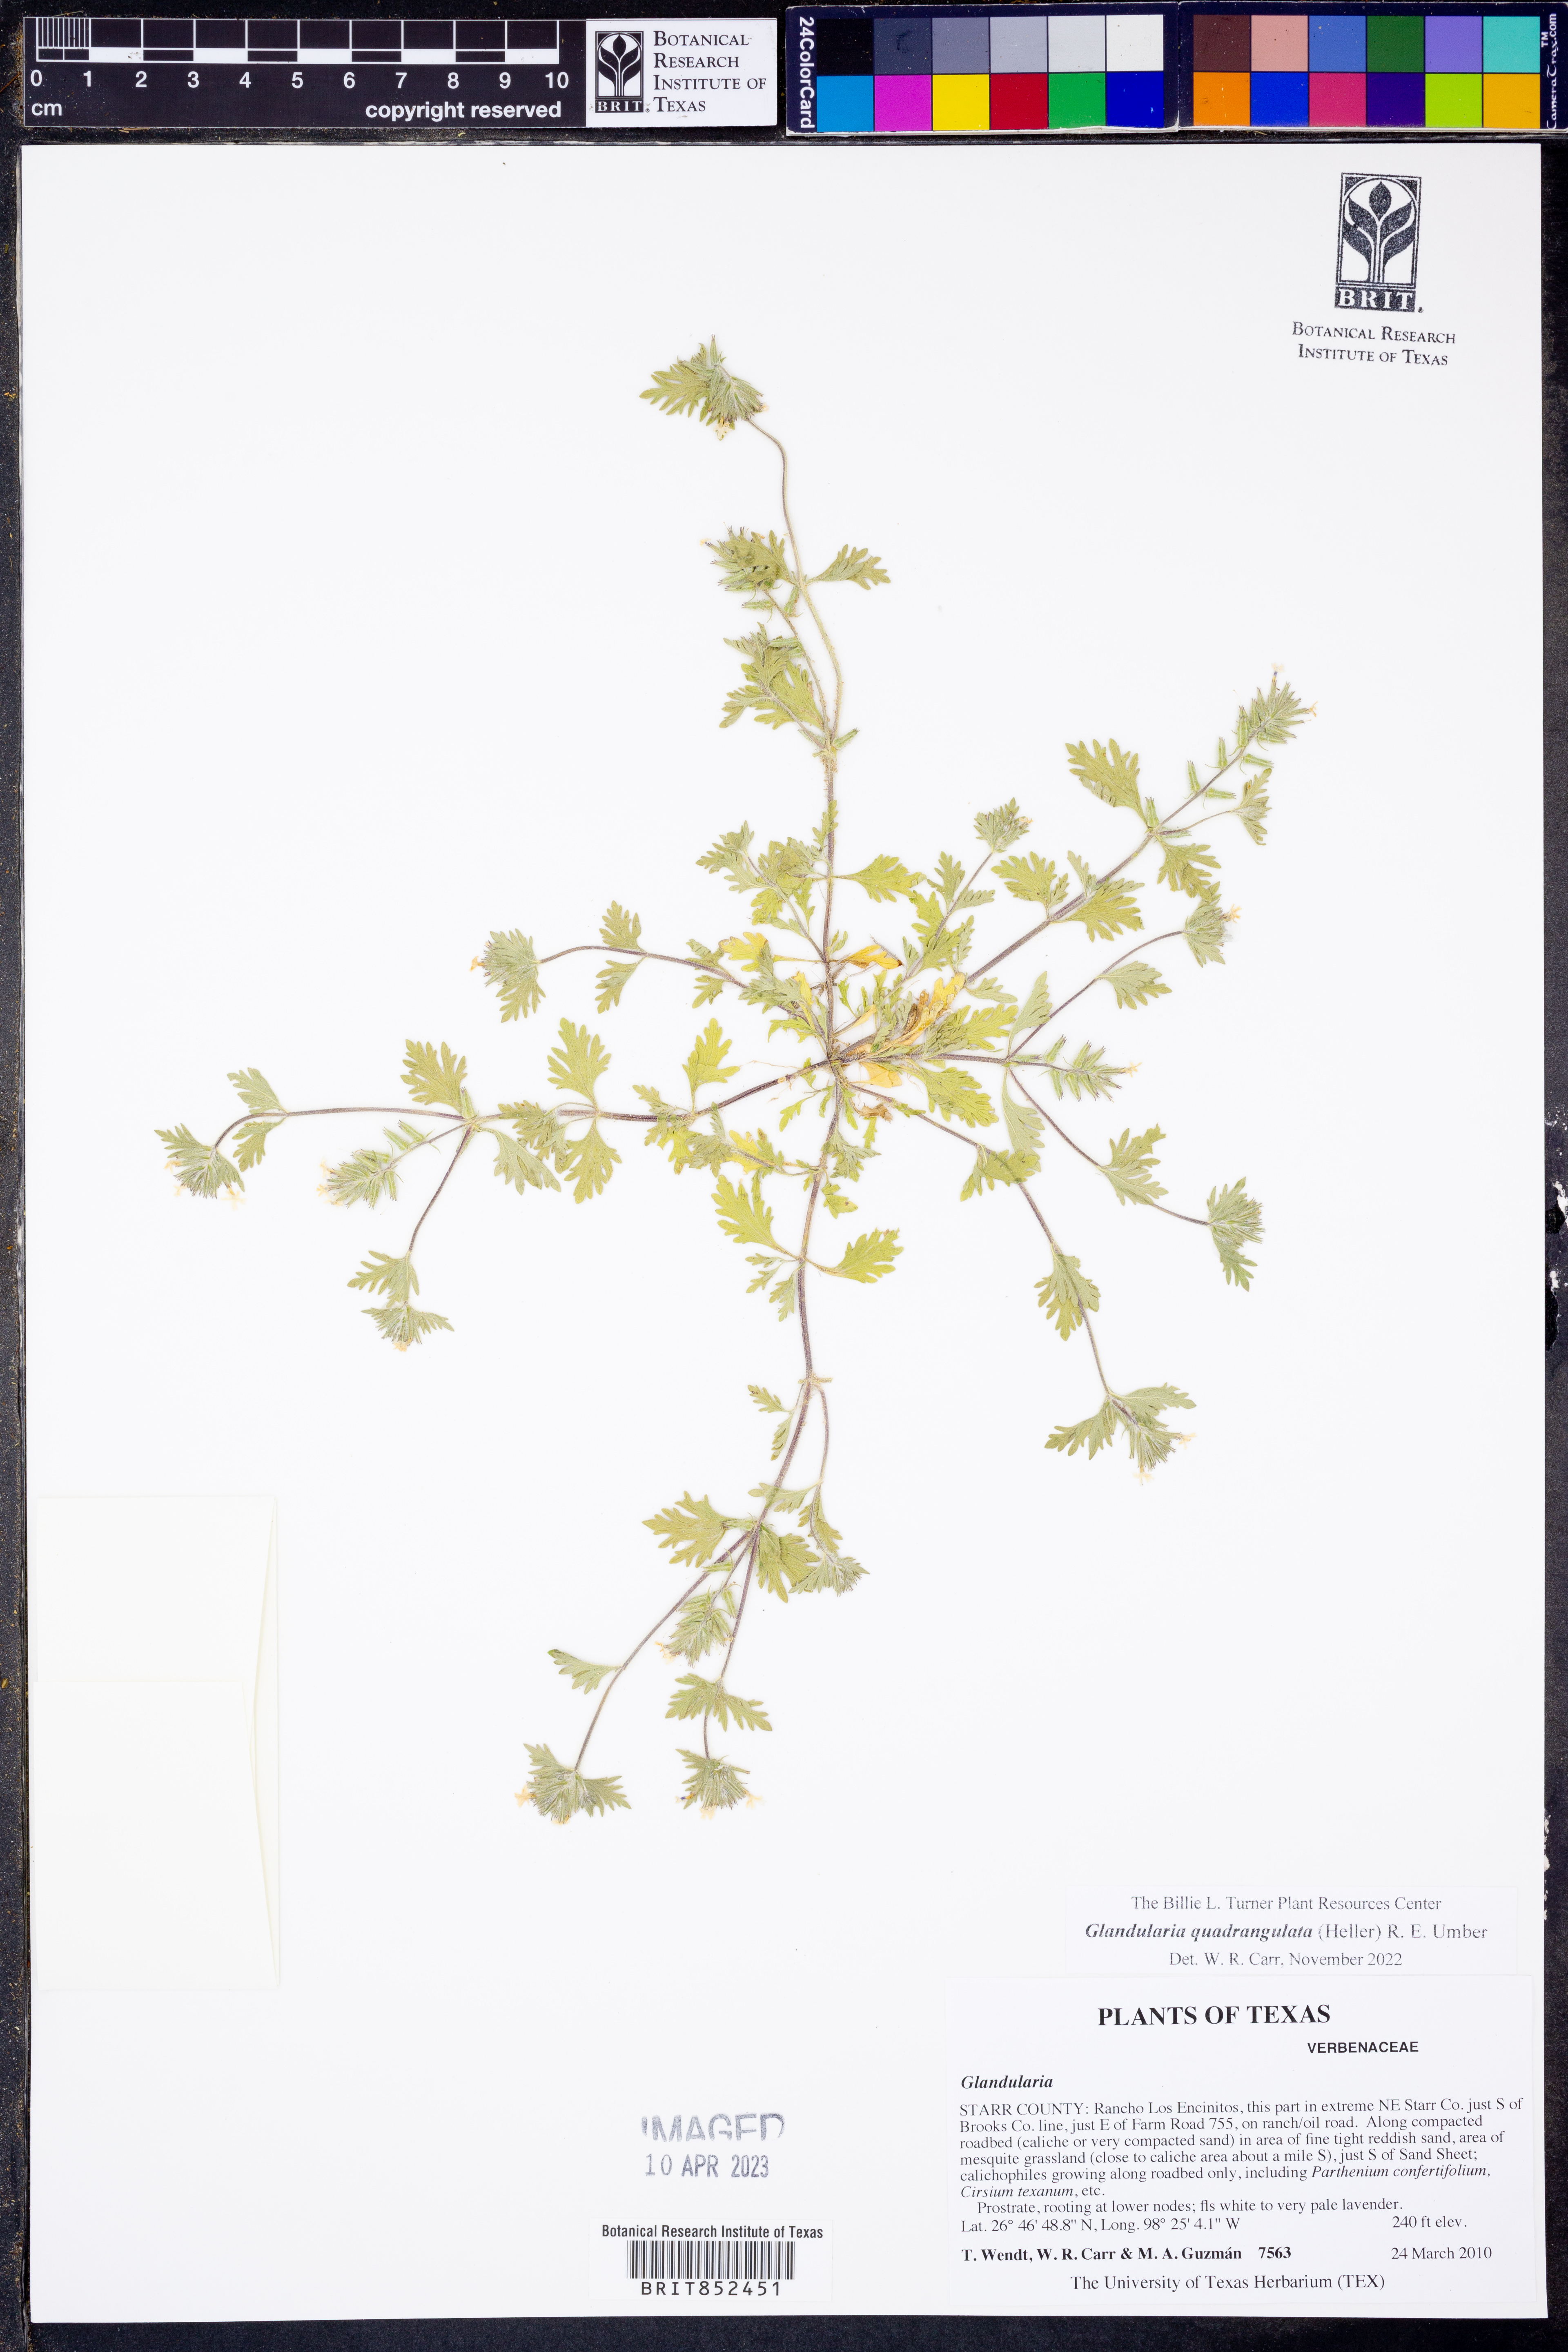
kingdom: Plantae
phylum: Tracheophyta
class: Magnoliopsida
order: Lamiales
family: Verbenaceae
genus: Verbena
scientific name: Verbena quadrangulata
